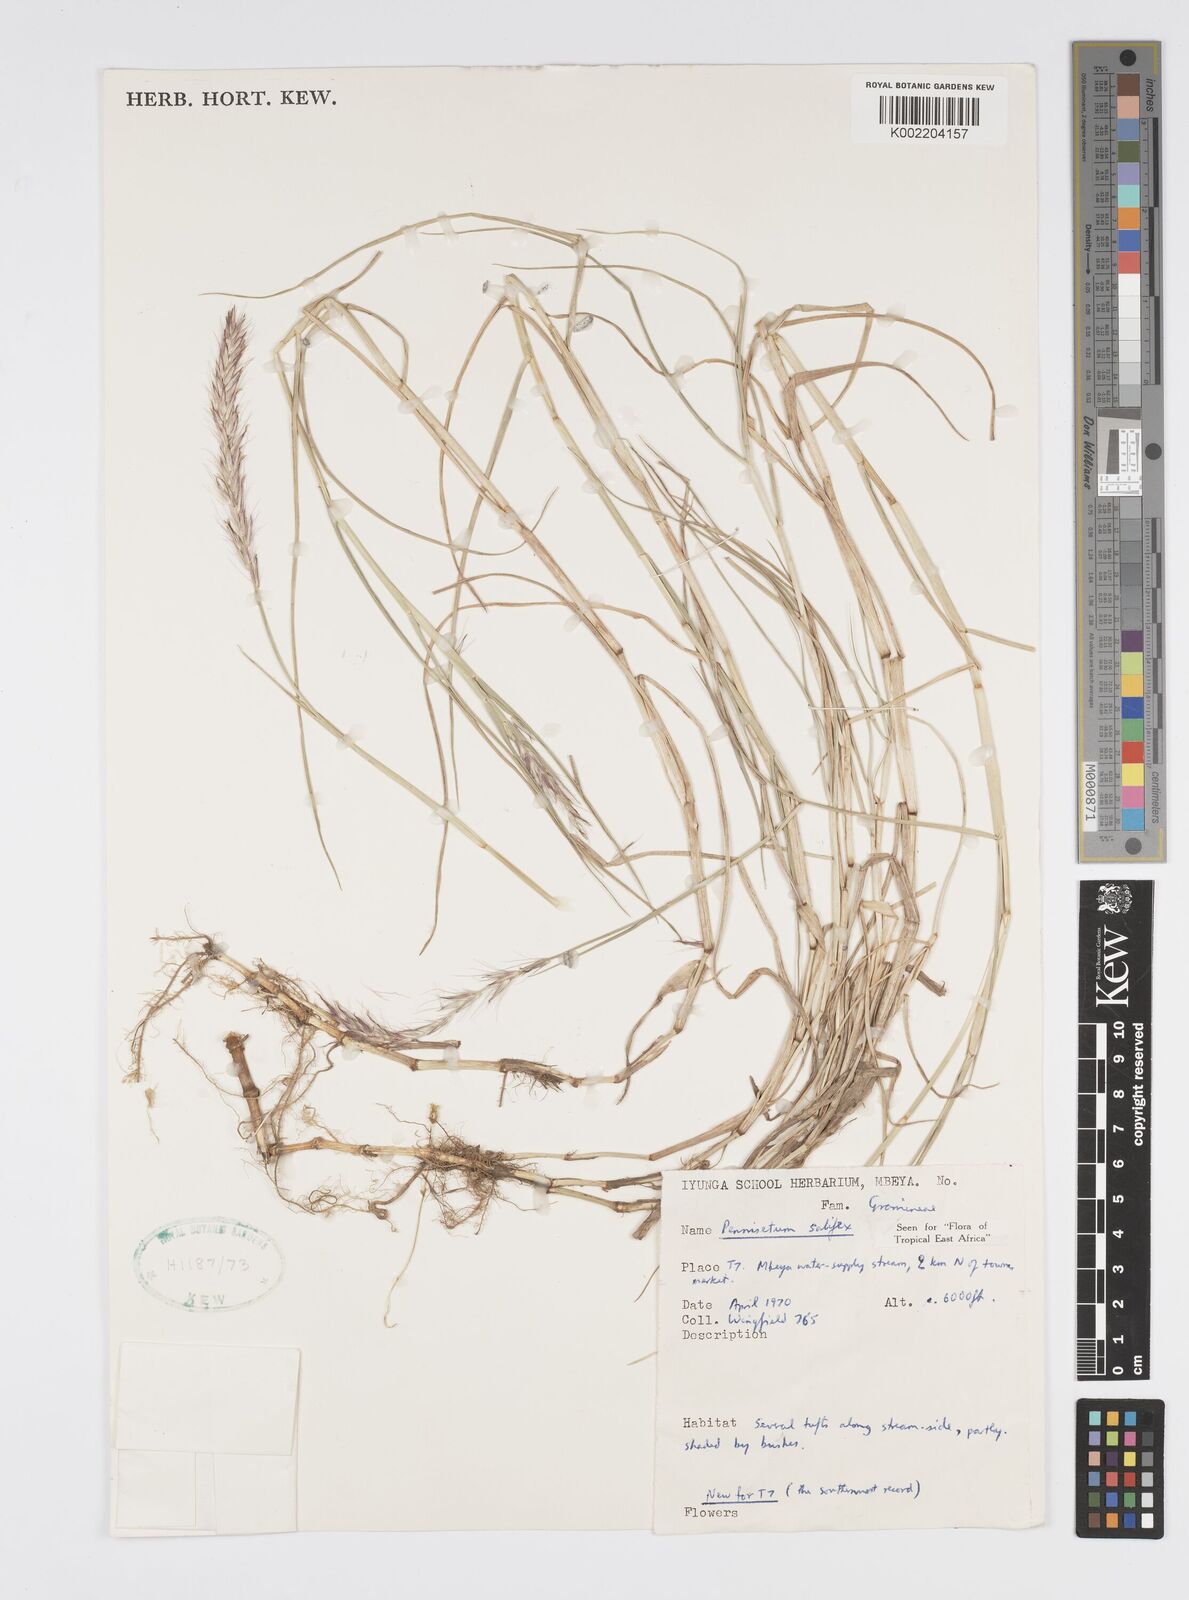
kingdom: Plantae
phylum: Tracheophyta
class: Liliopsida
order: Poales
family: Poaceae
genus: Cenchrus
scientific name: Cenchrus riparius
